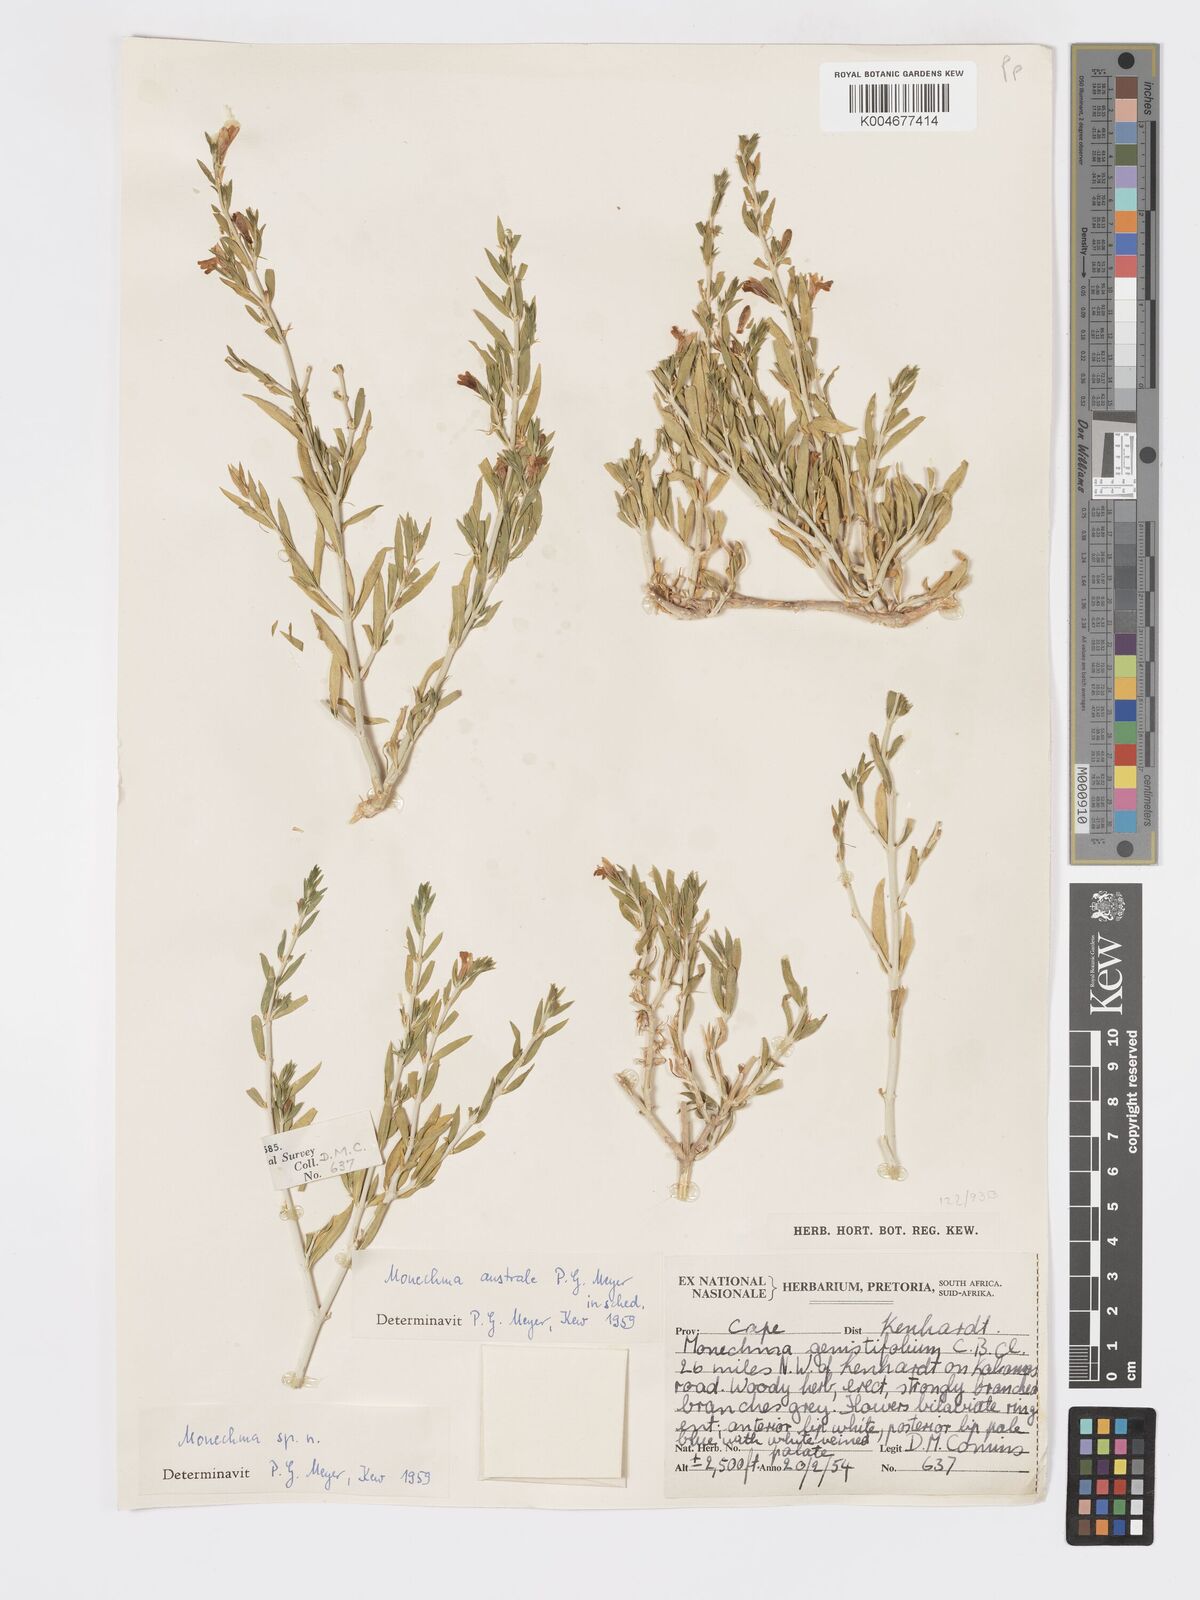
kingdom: Plantae
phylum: Tracheophyta
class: Magnoliopsida
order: Lamiales
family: Acanthaceae
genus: Pogonospermum
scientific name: Pogonospermum
